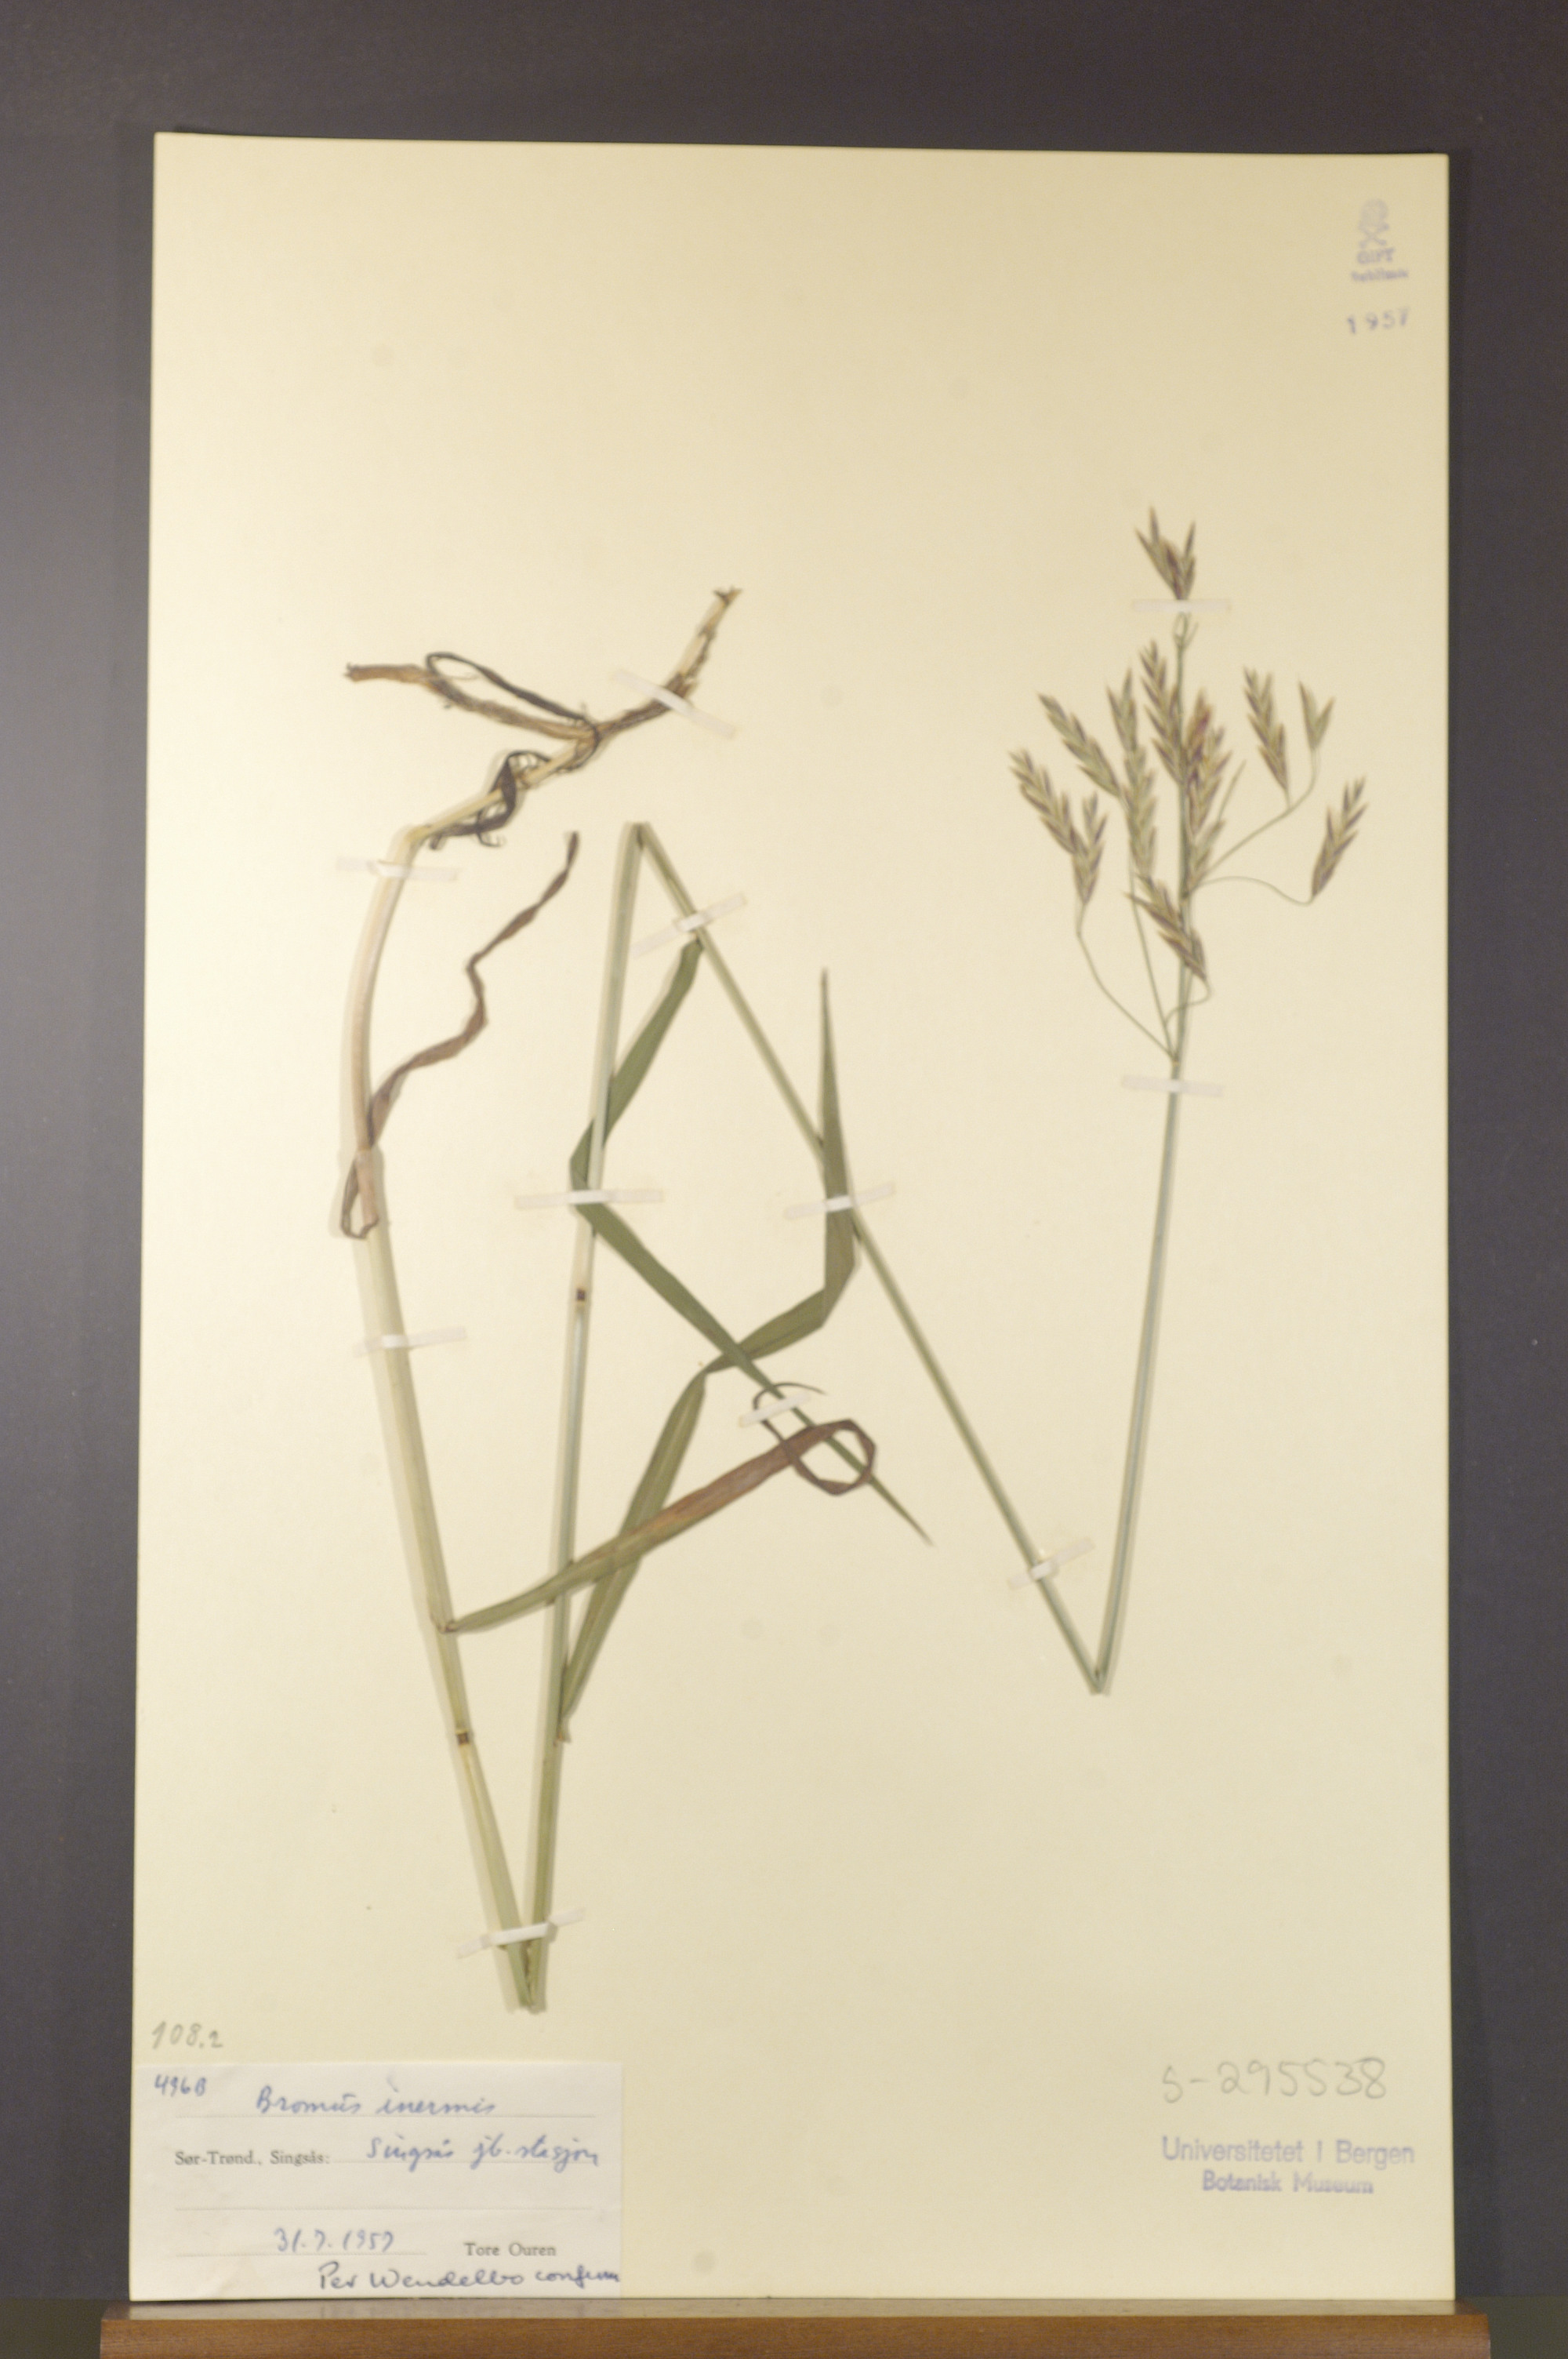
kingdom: Plantae
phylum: Tracheophyta
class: Liliopsida
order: Poales
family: Poaceae
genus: Bromus
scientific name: Bromus inermis
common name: Smooth brome
